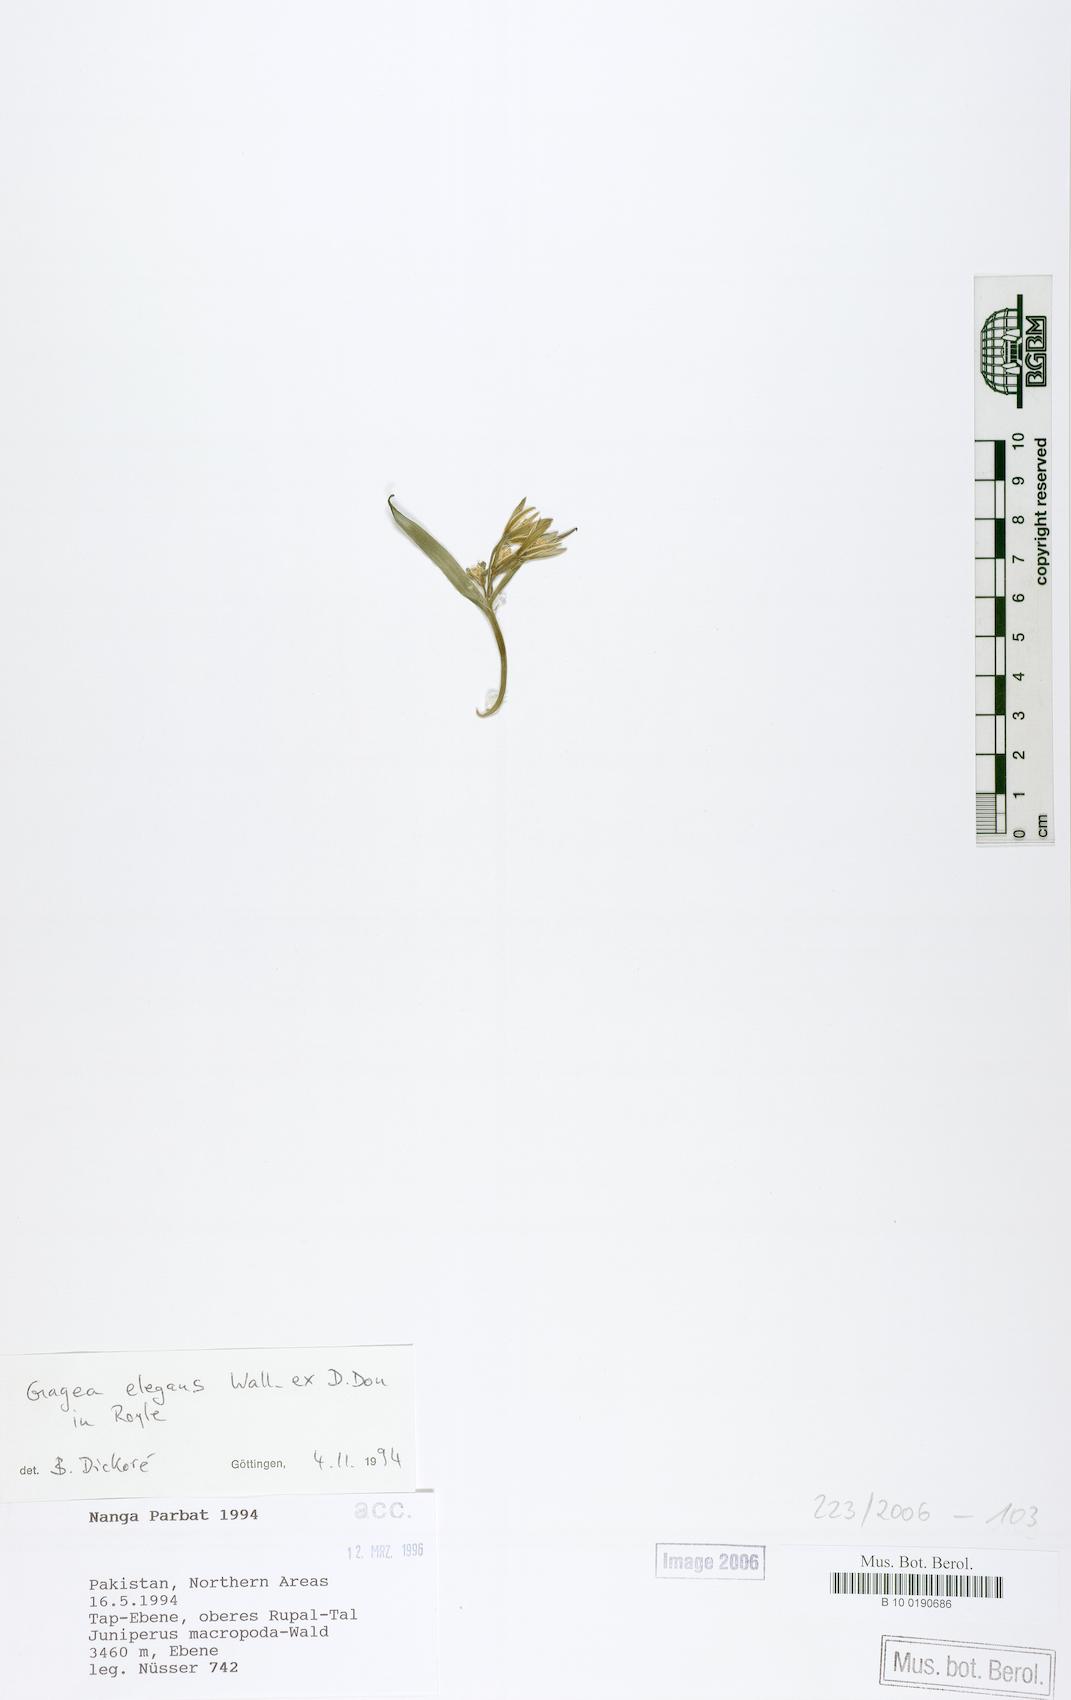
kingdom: Plantae
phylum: Tracheophyta
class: Liliopsida
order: Liliales
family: Liliaceae
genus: Gagea
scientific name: Gagea elegans
